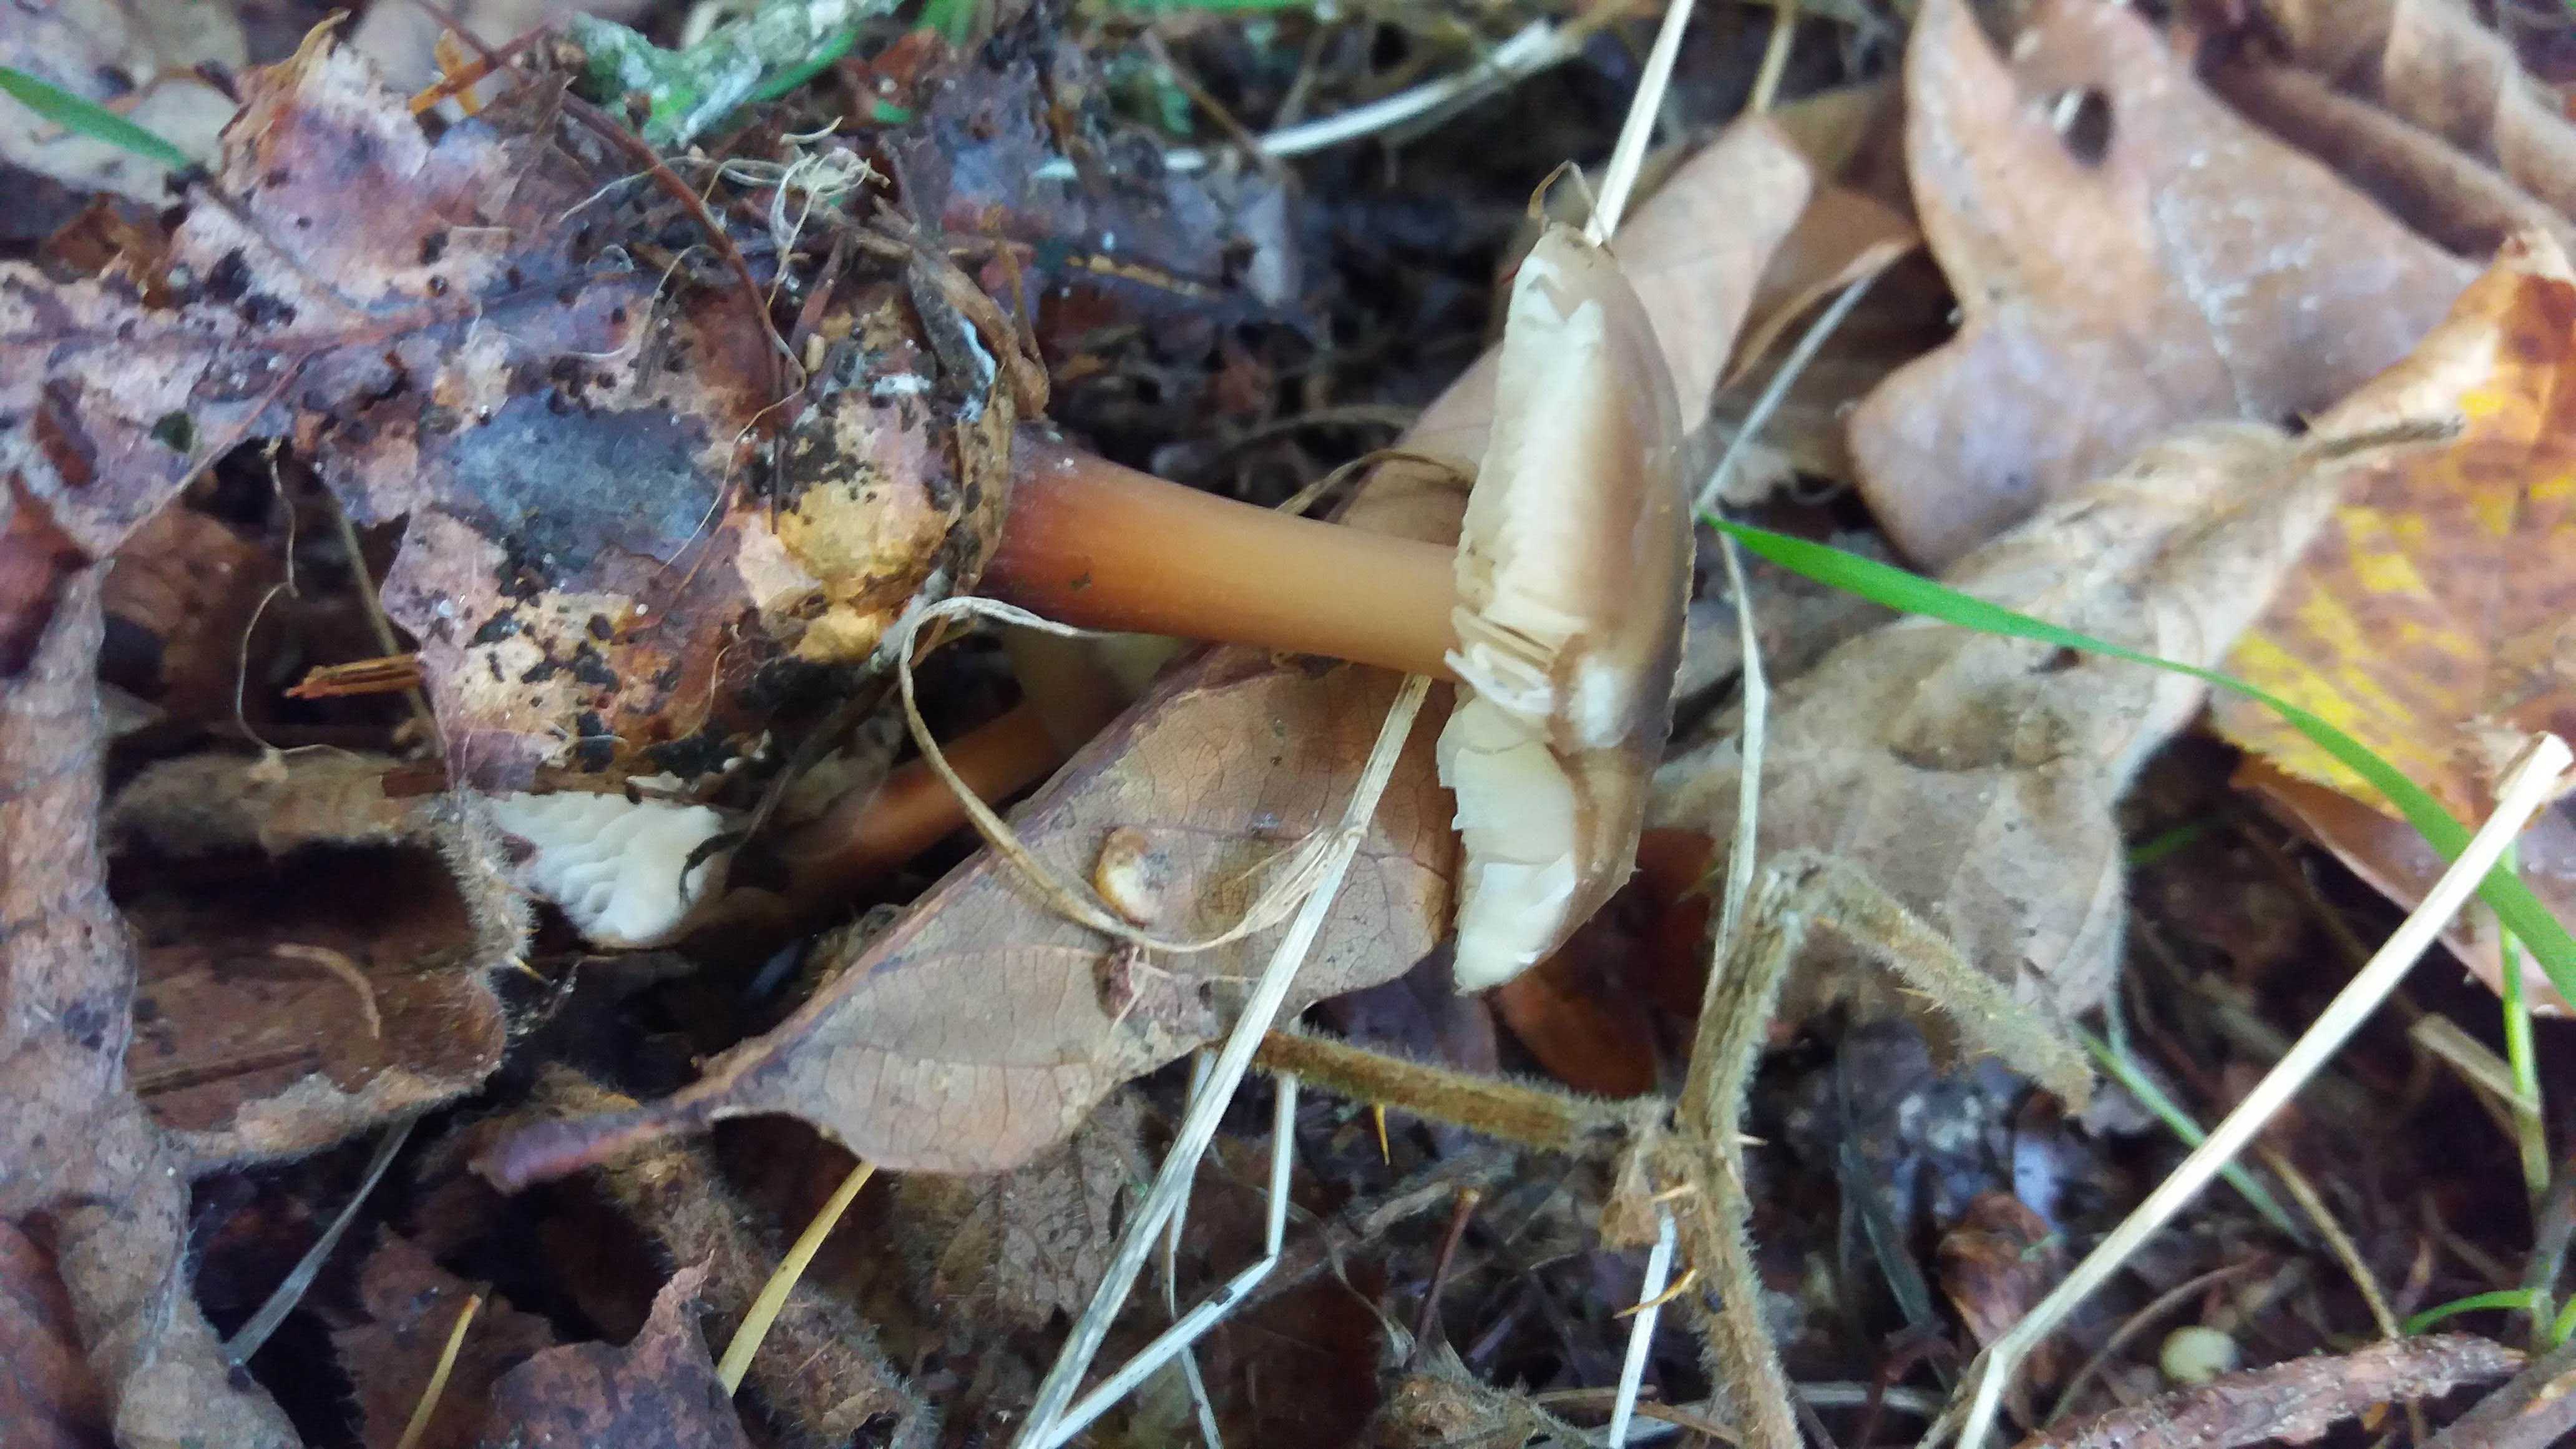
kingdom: Fungi
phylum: Basidiomycota
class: Agaricomycetes
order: Agaricales
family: Omphalotaceae
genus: Rhodocollybia
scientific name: Rhodocollybia asema
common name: horngrå fladhat
